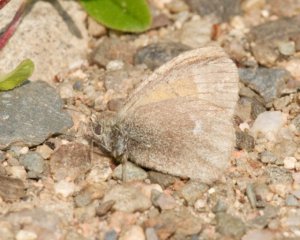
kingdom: Animalia
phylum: Arthropoda
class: Insecta
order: Lepidoptera
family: Nymphalidae
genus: Coenonympha
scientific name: Coenonympha tullia
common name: Large Heath
